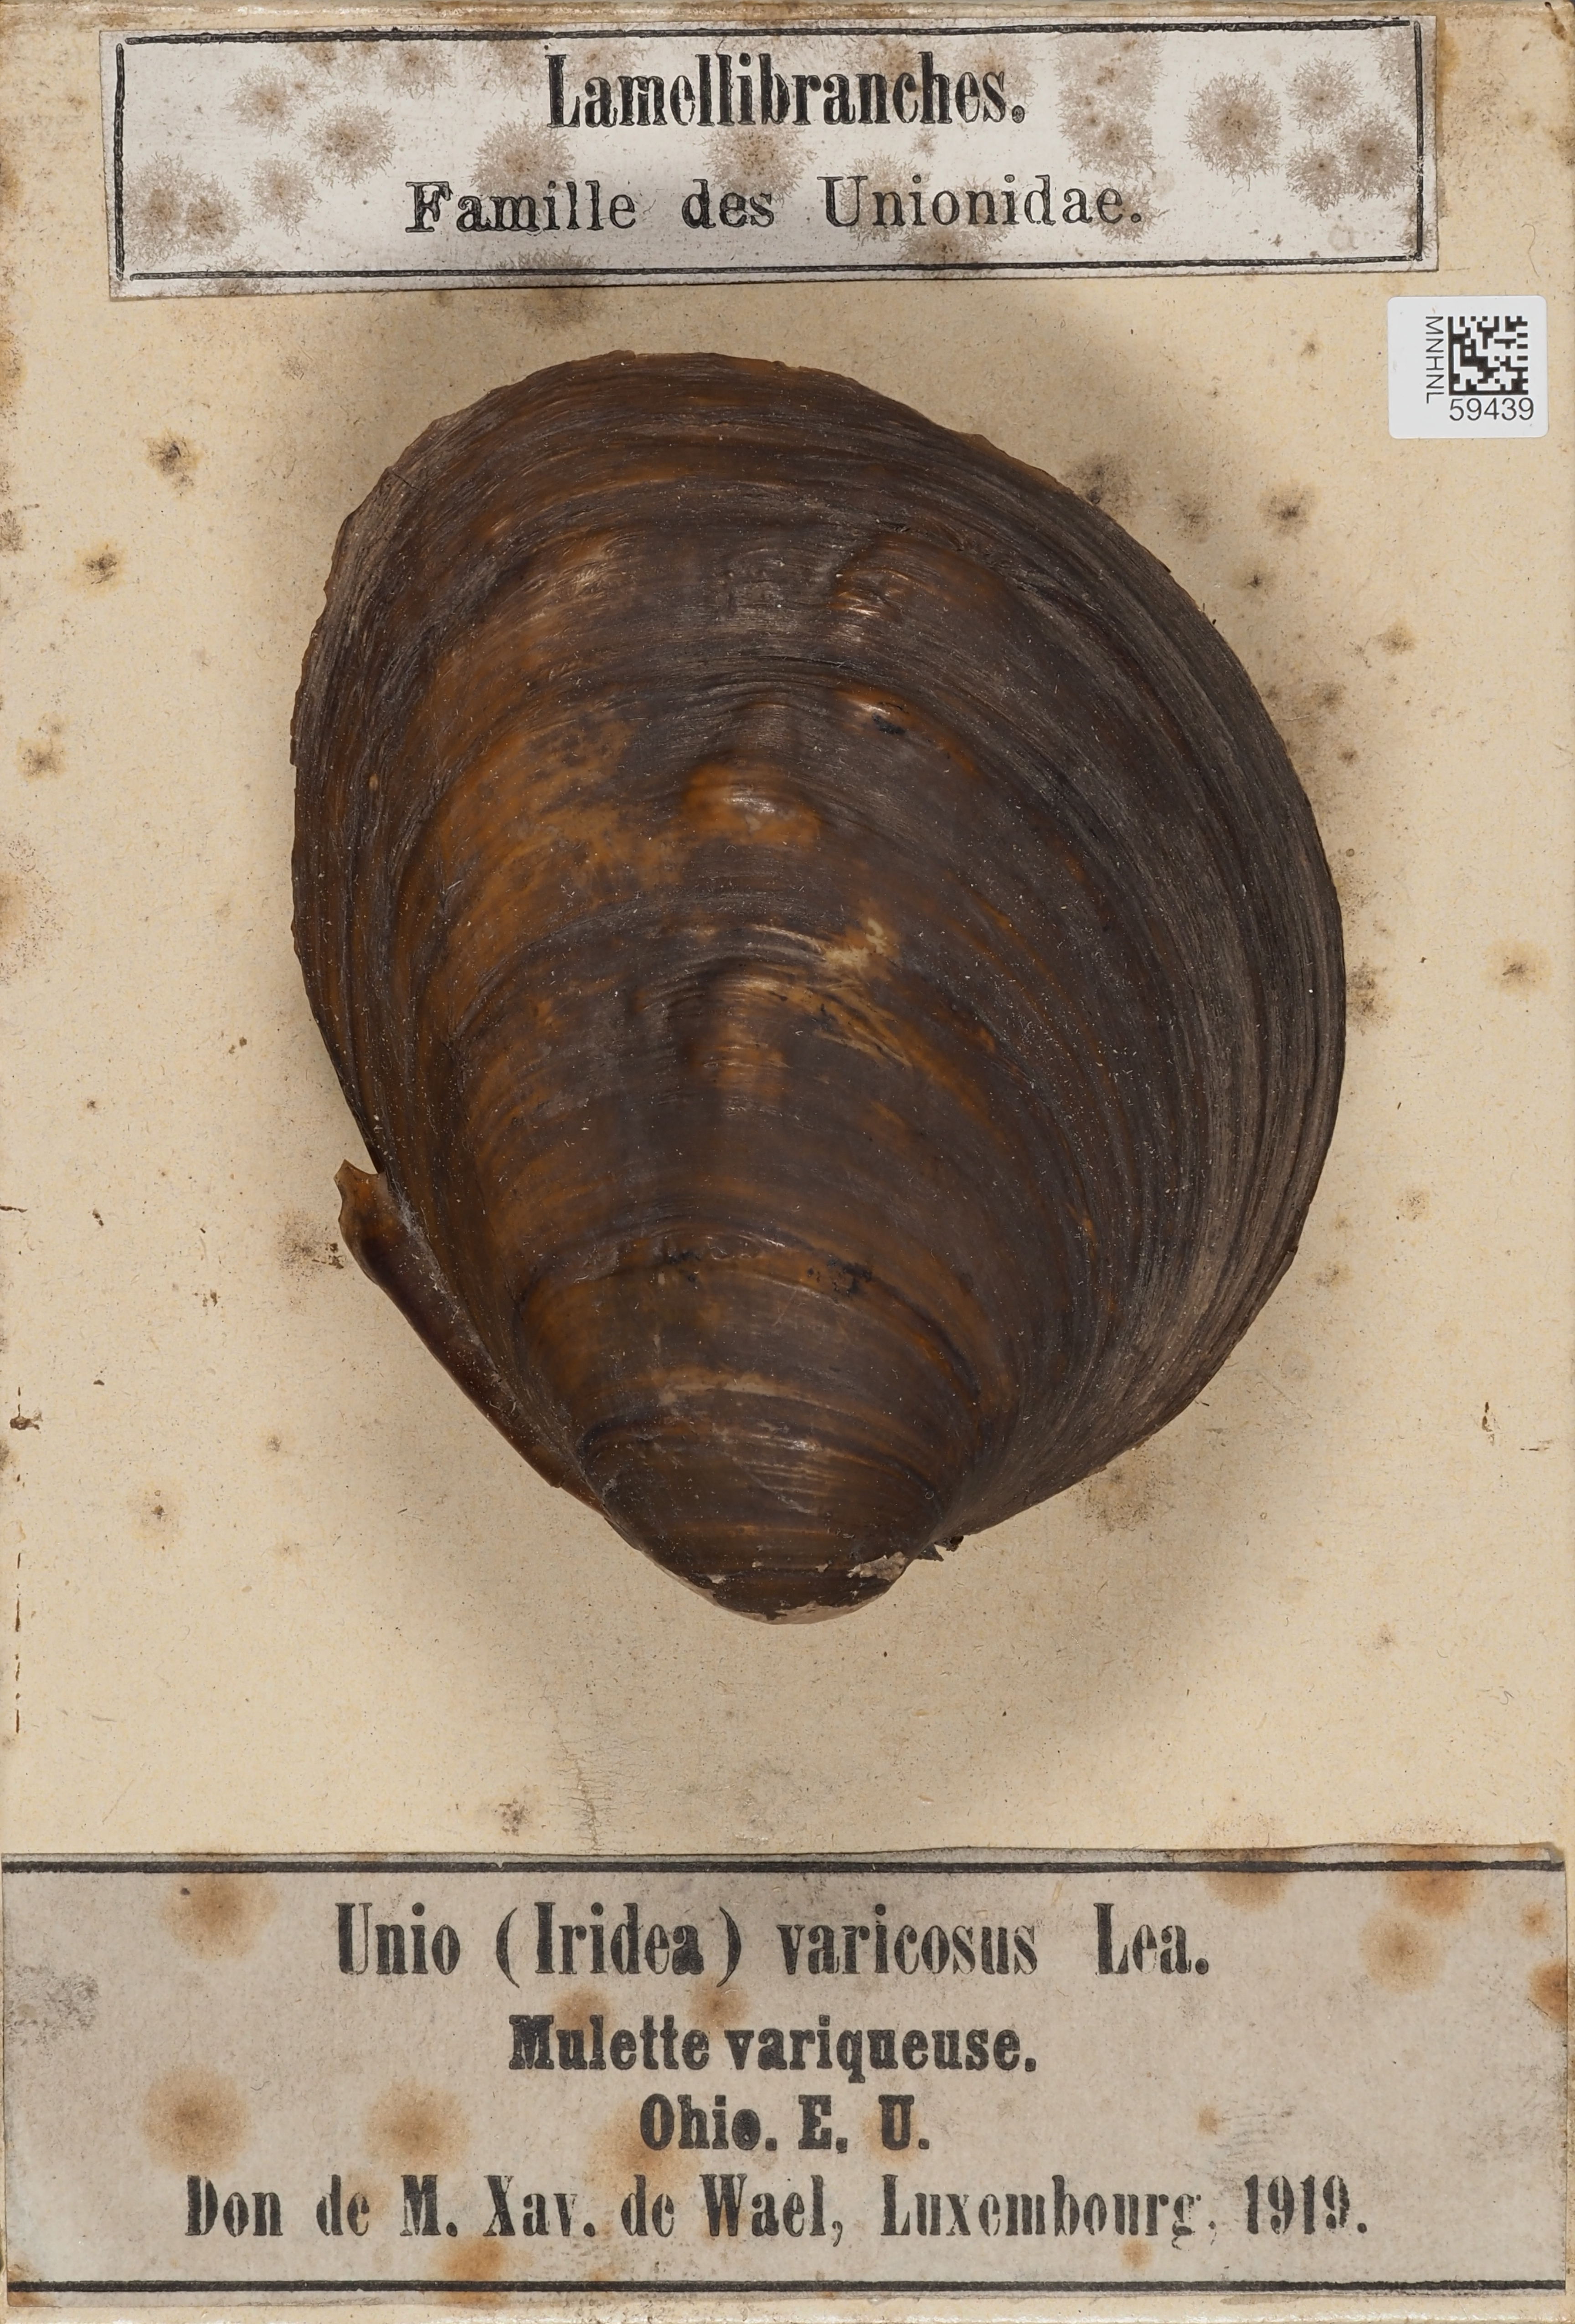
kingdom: Animalia
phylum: Mollusca
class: Bivalvia
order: Unionida
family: Unionidae
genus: Plethobasus
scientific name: Plethobasus cicatricosus
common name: White wartyback
